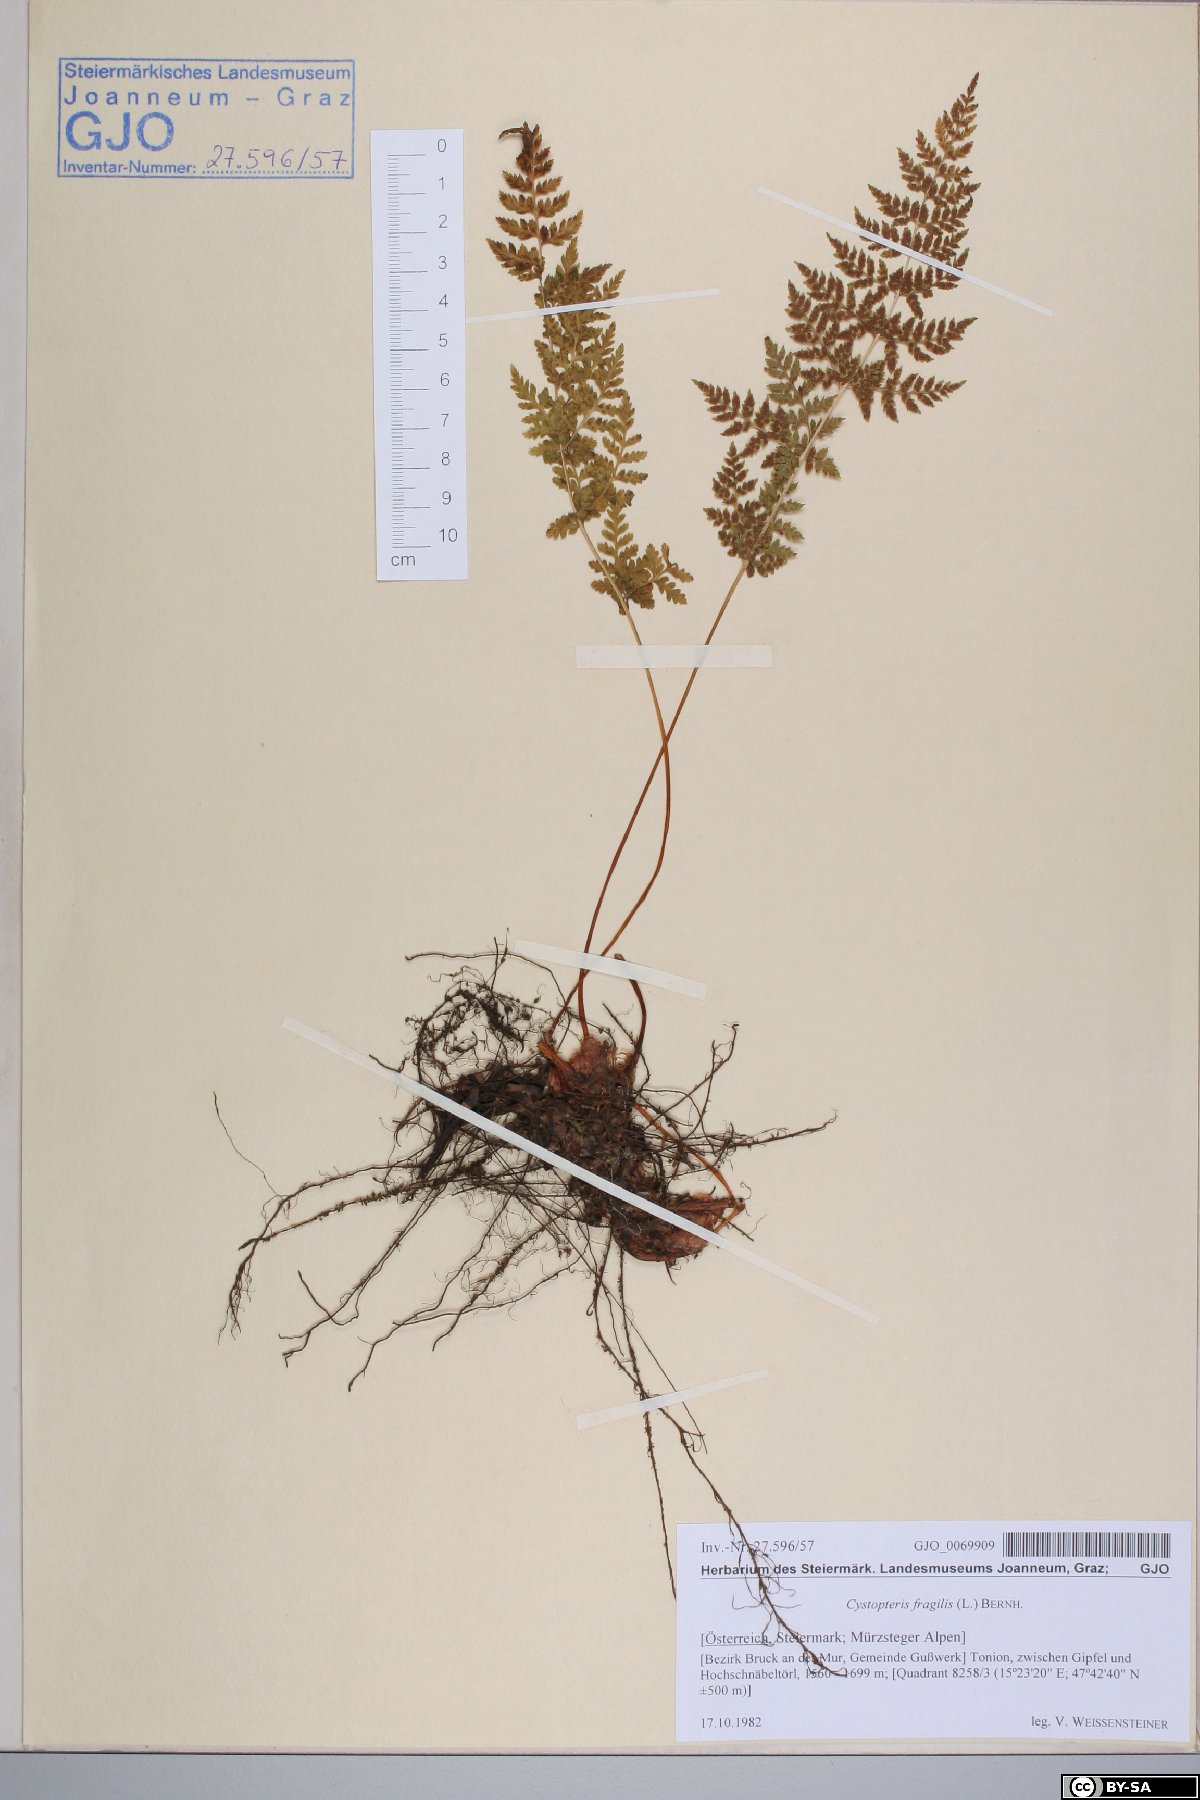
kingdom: Plantae
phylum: Tracheophyta
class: Polypodiopsida
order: Polypodiales
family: Cystopteridaceae
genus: Cystopteris
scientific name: Cystopteris fragilis
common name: Brittle bladder fern
